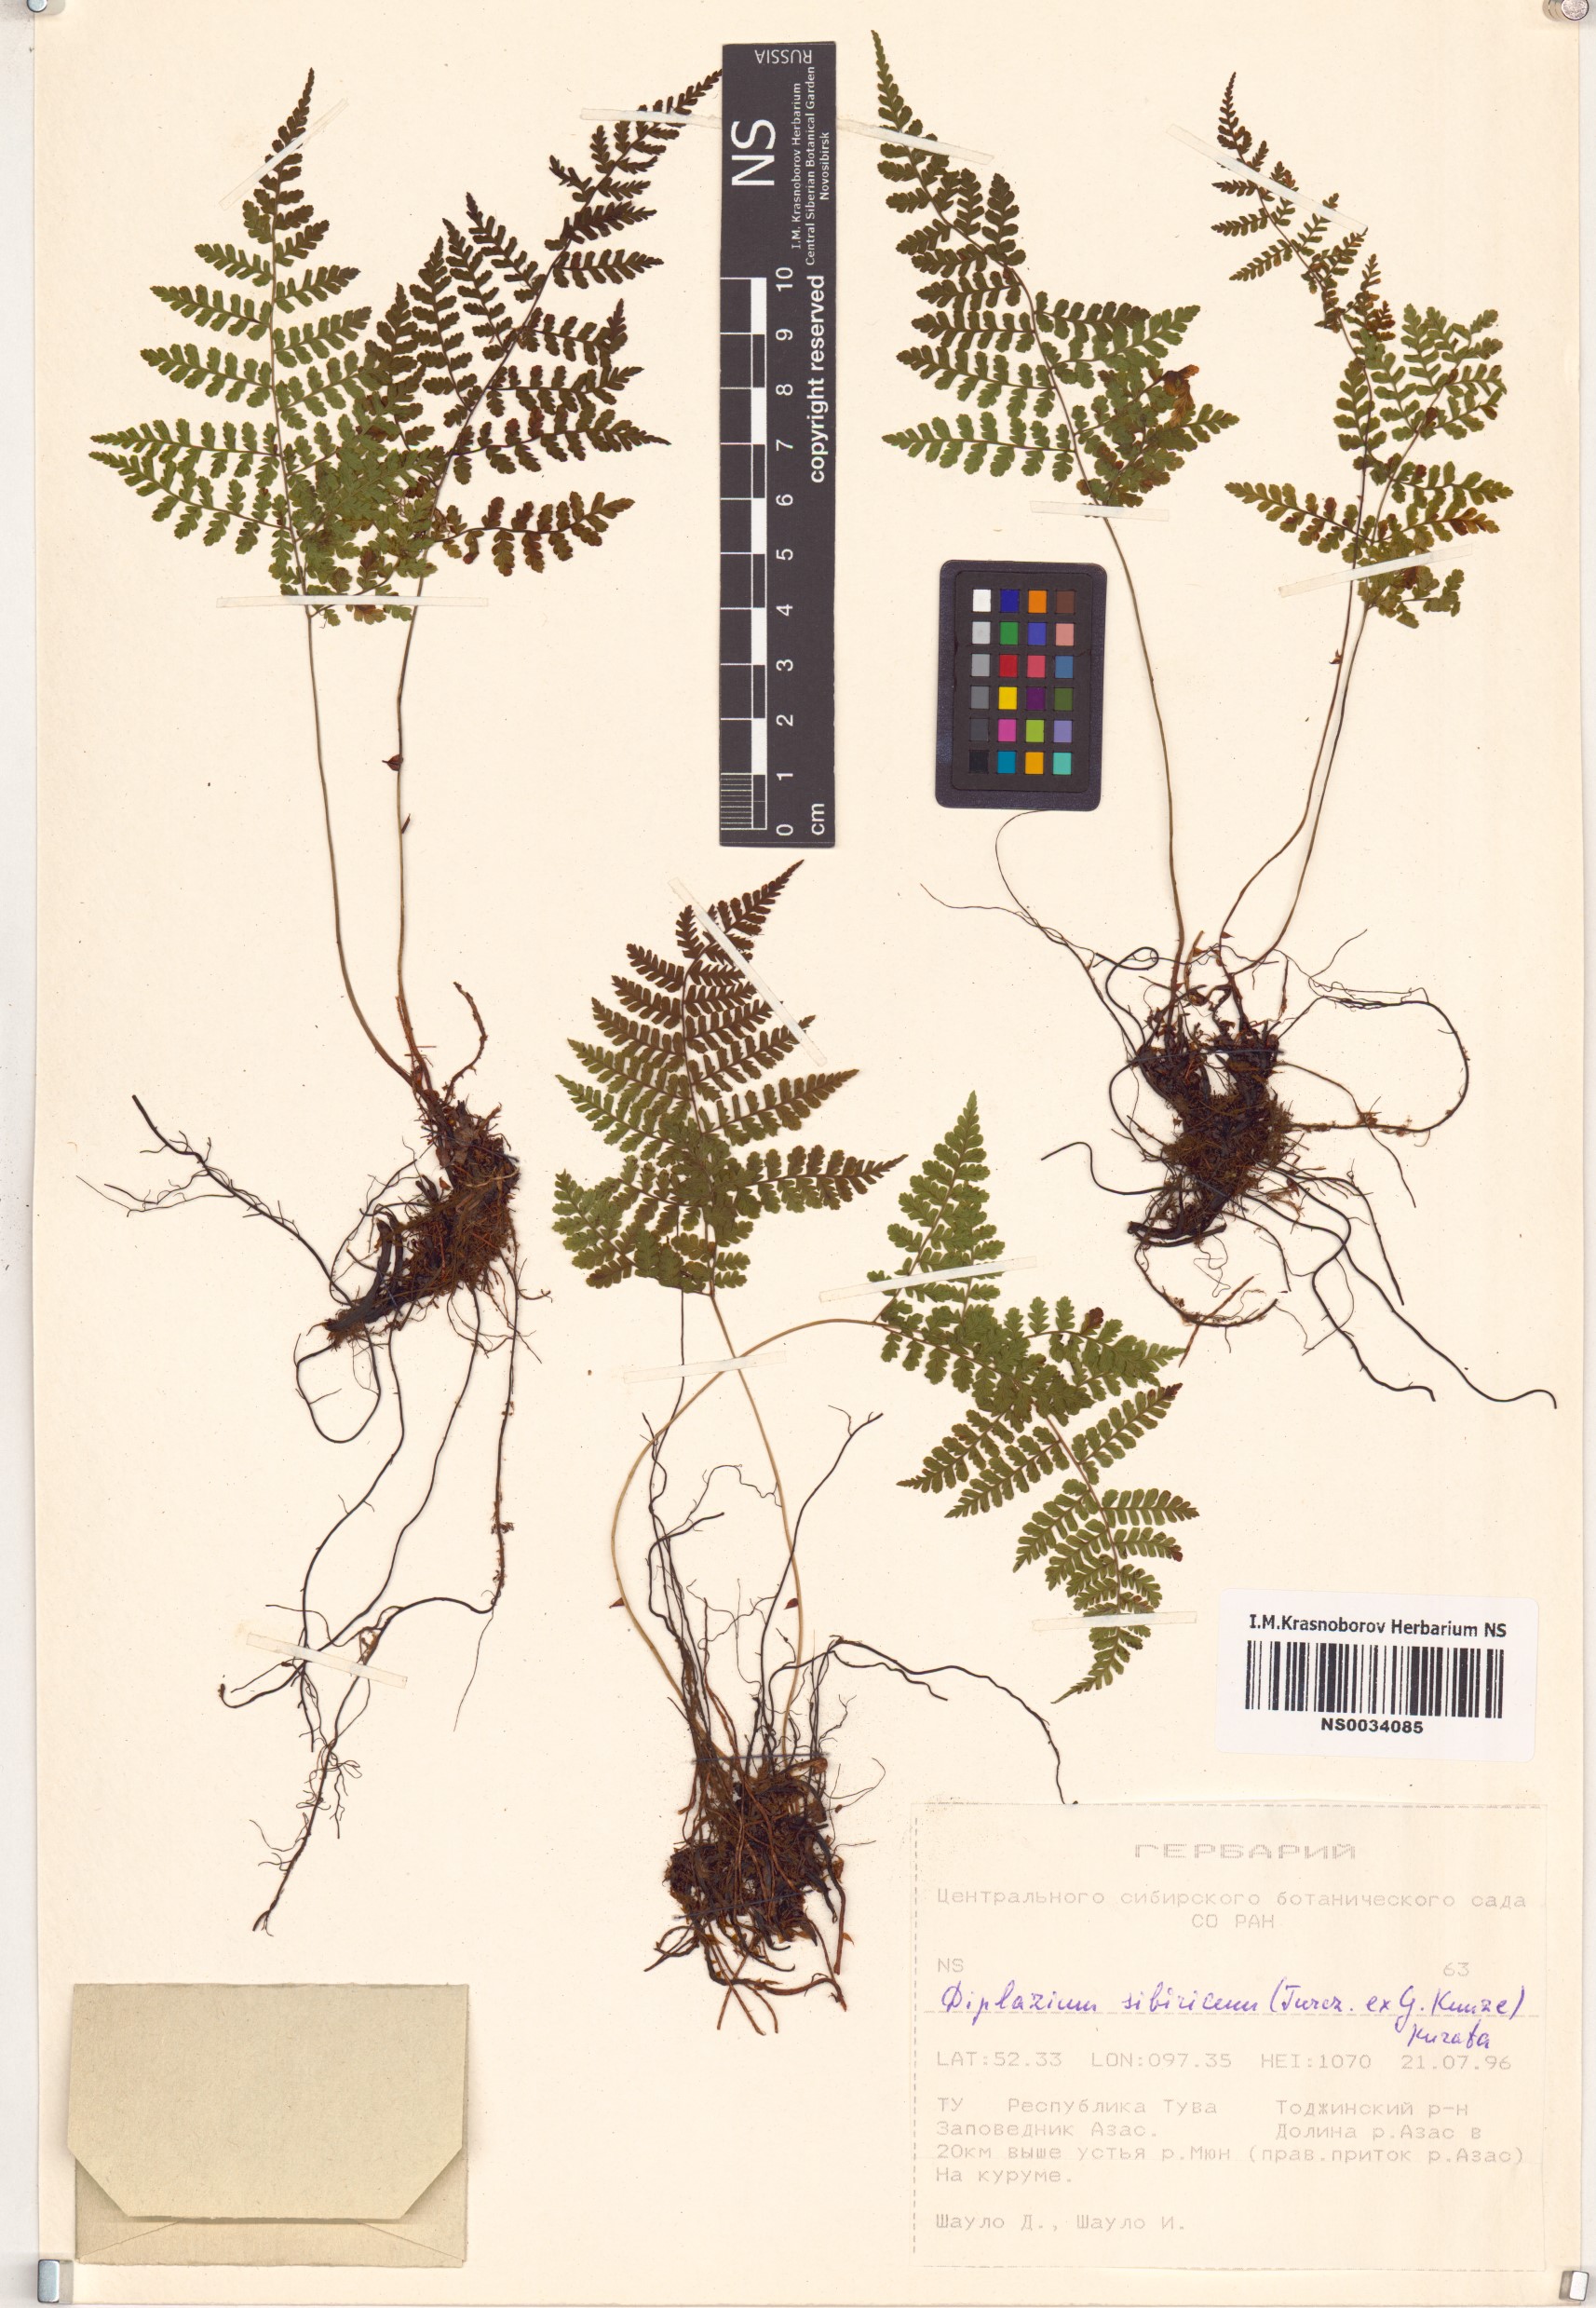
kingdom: Plantae
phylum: Tracheophyta
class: Polypodiopsida
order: Polypodiales
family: Athyriaceae
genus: Diplazium
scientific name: Diplazium sibiricum
